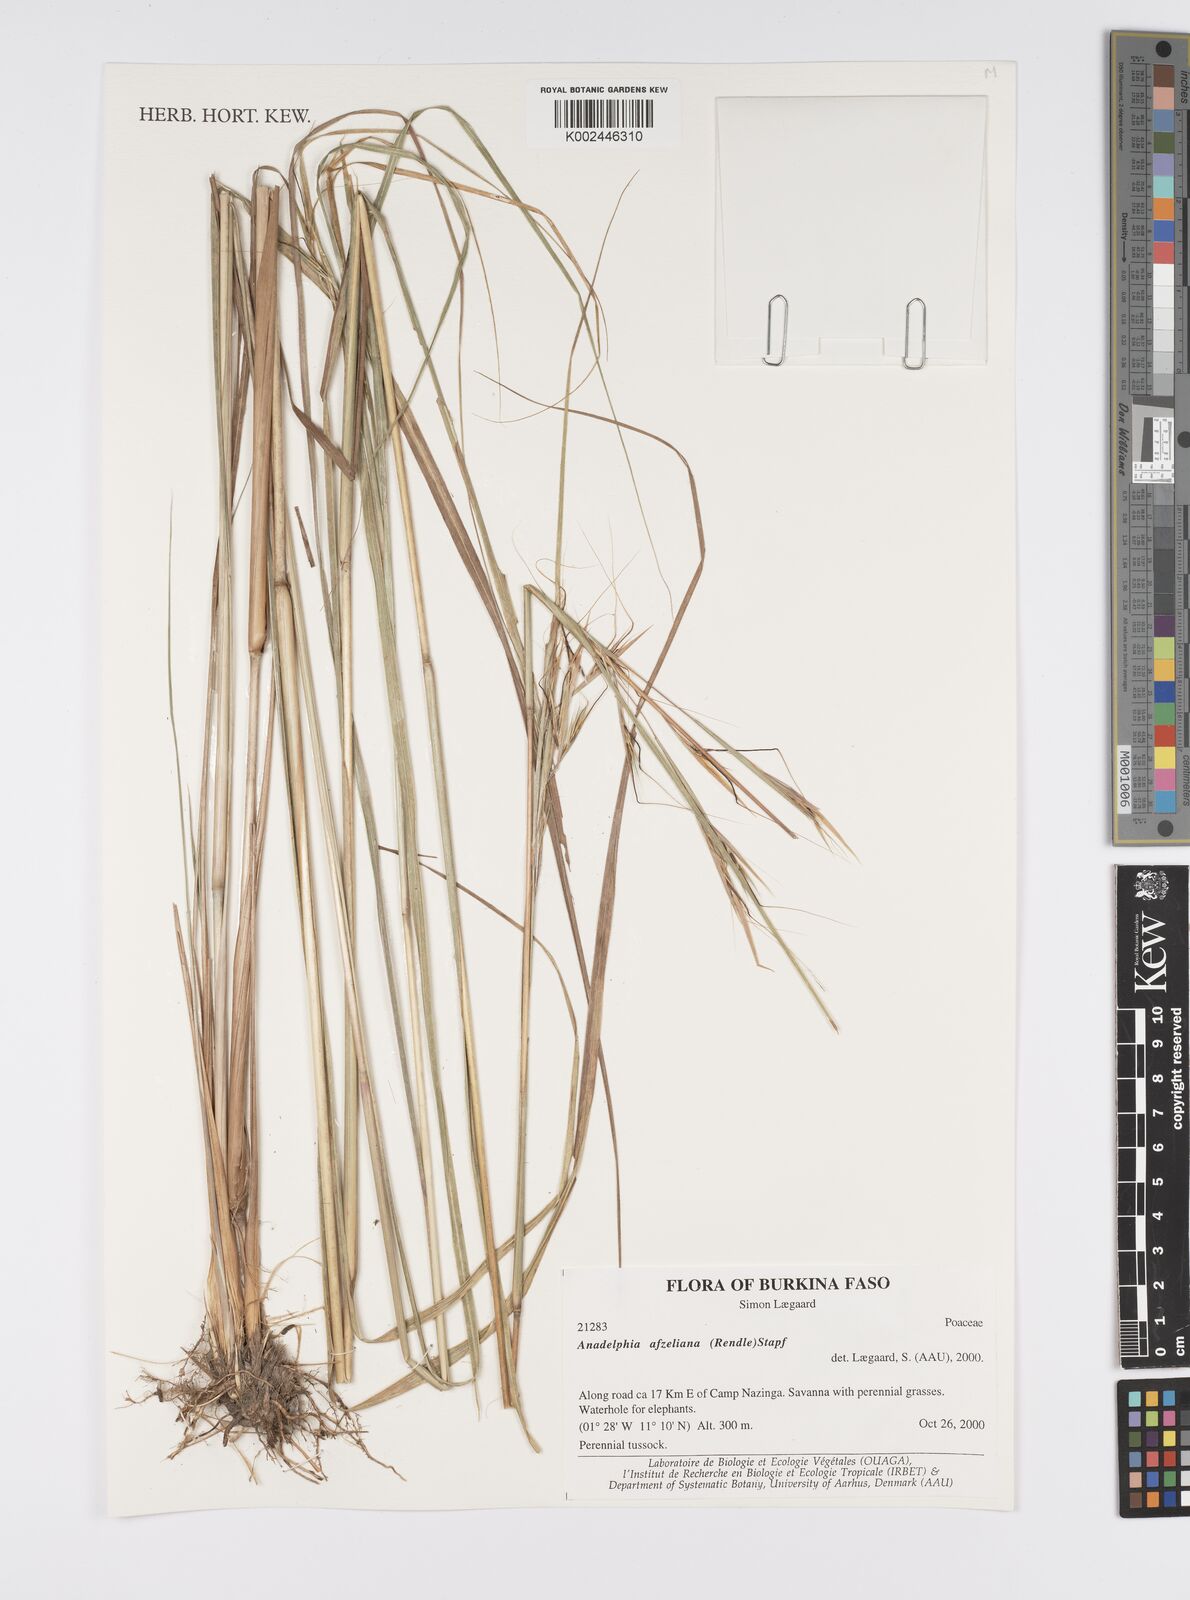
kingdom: Plantae
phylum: Tracheophyta
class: Liliopsida
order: Poales
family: Poaceae
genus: Anadelphia
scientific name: Anadelphia afzeliana
